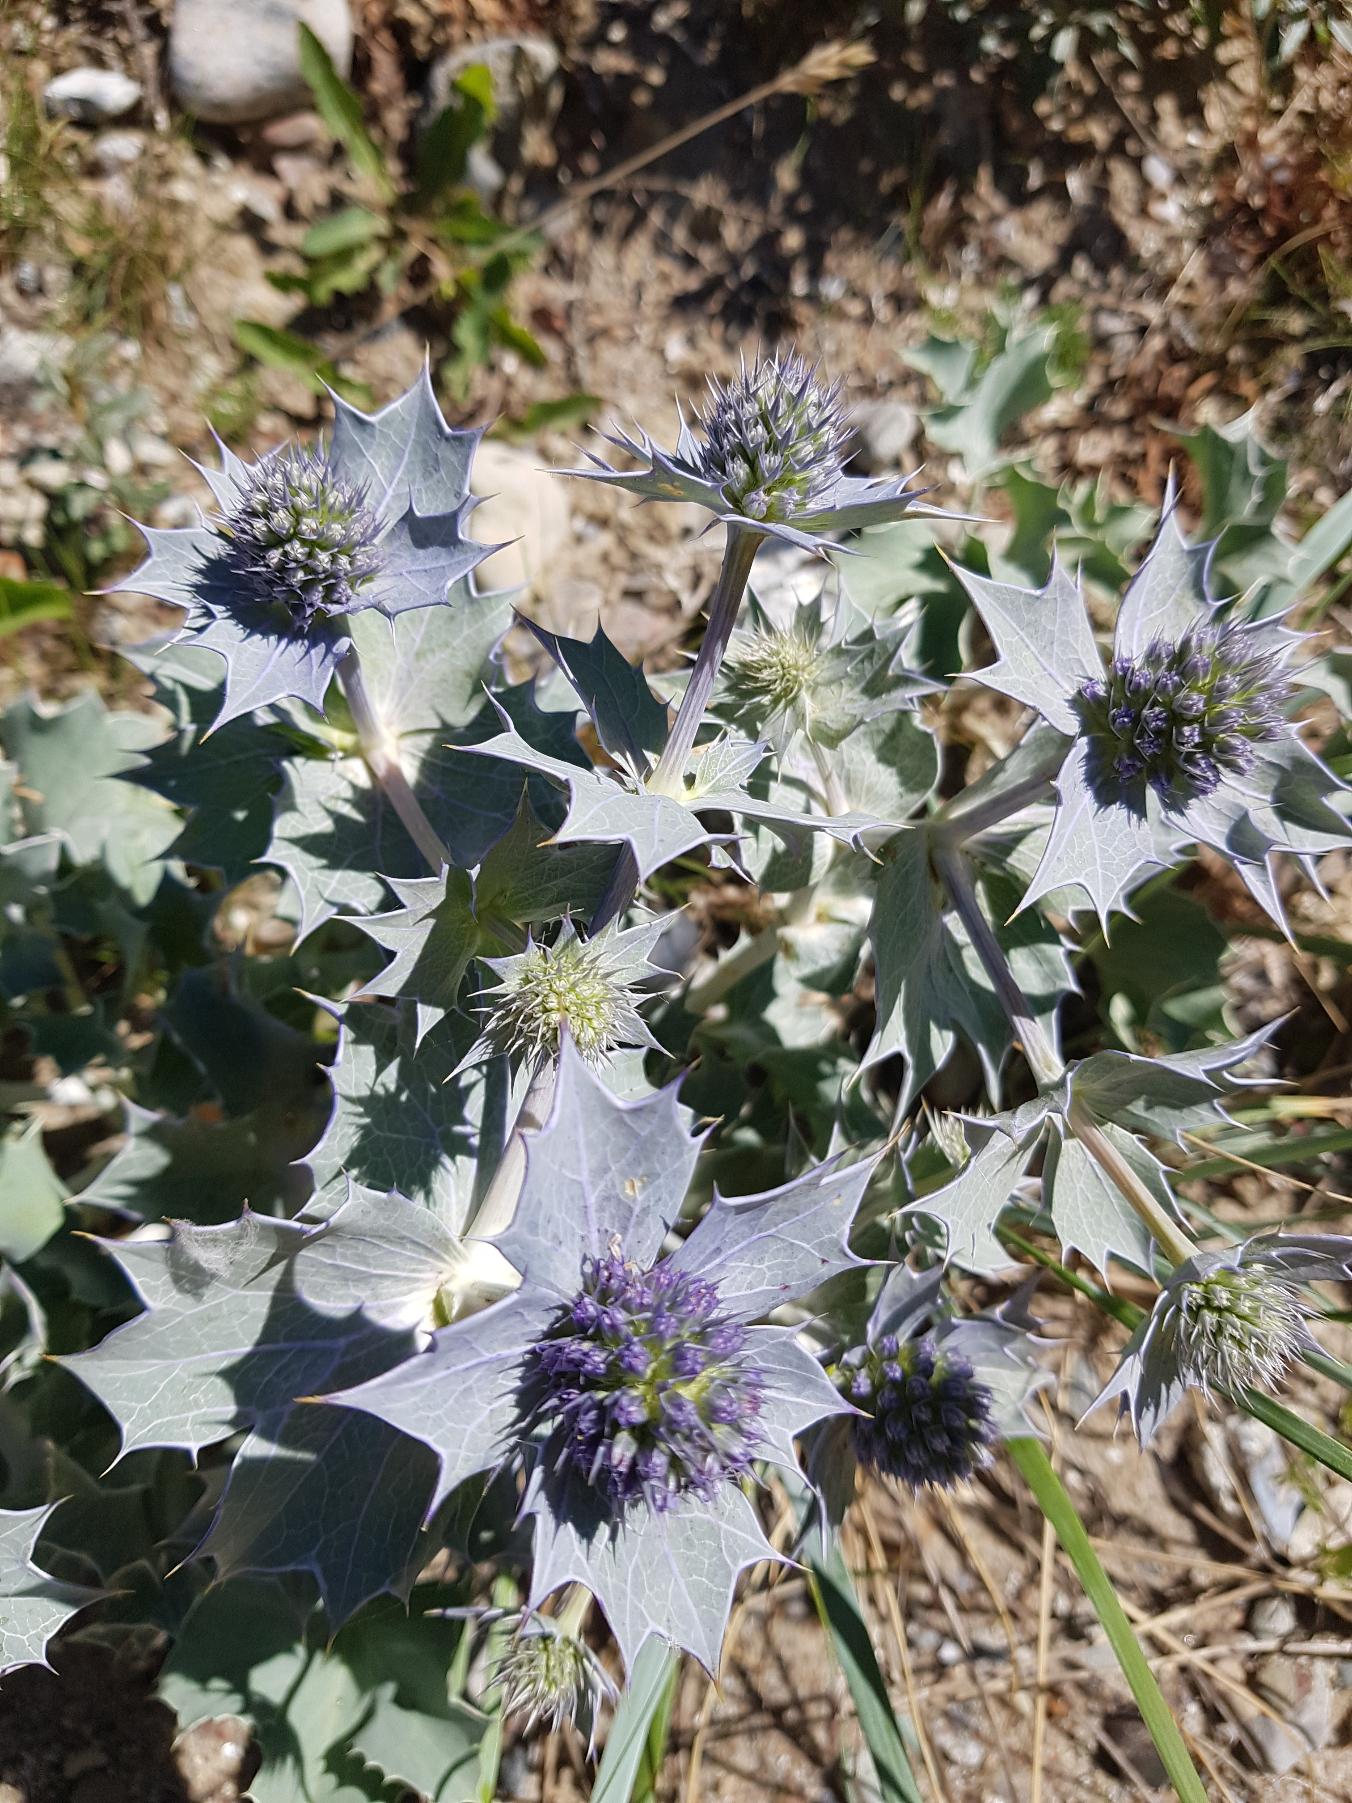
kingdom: Plantae
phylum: Tracheophyta
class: Magnoliopsida
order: Apiales
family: Apiaceae
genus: Eryngium
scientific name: Eryngium maritimum
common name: Strand-mandstro
